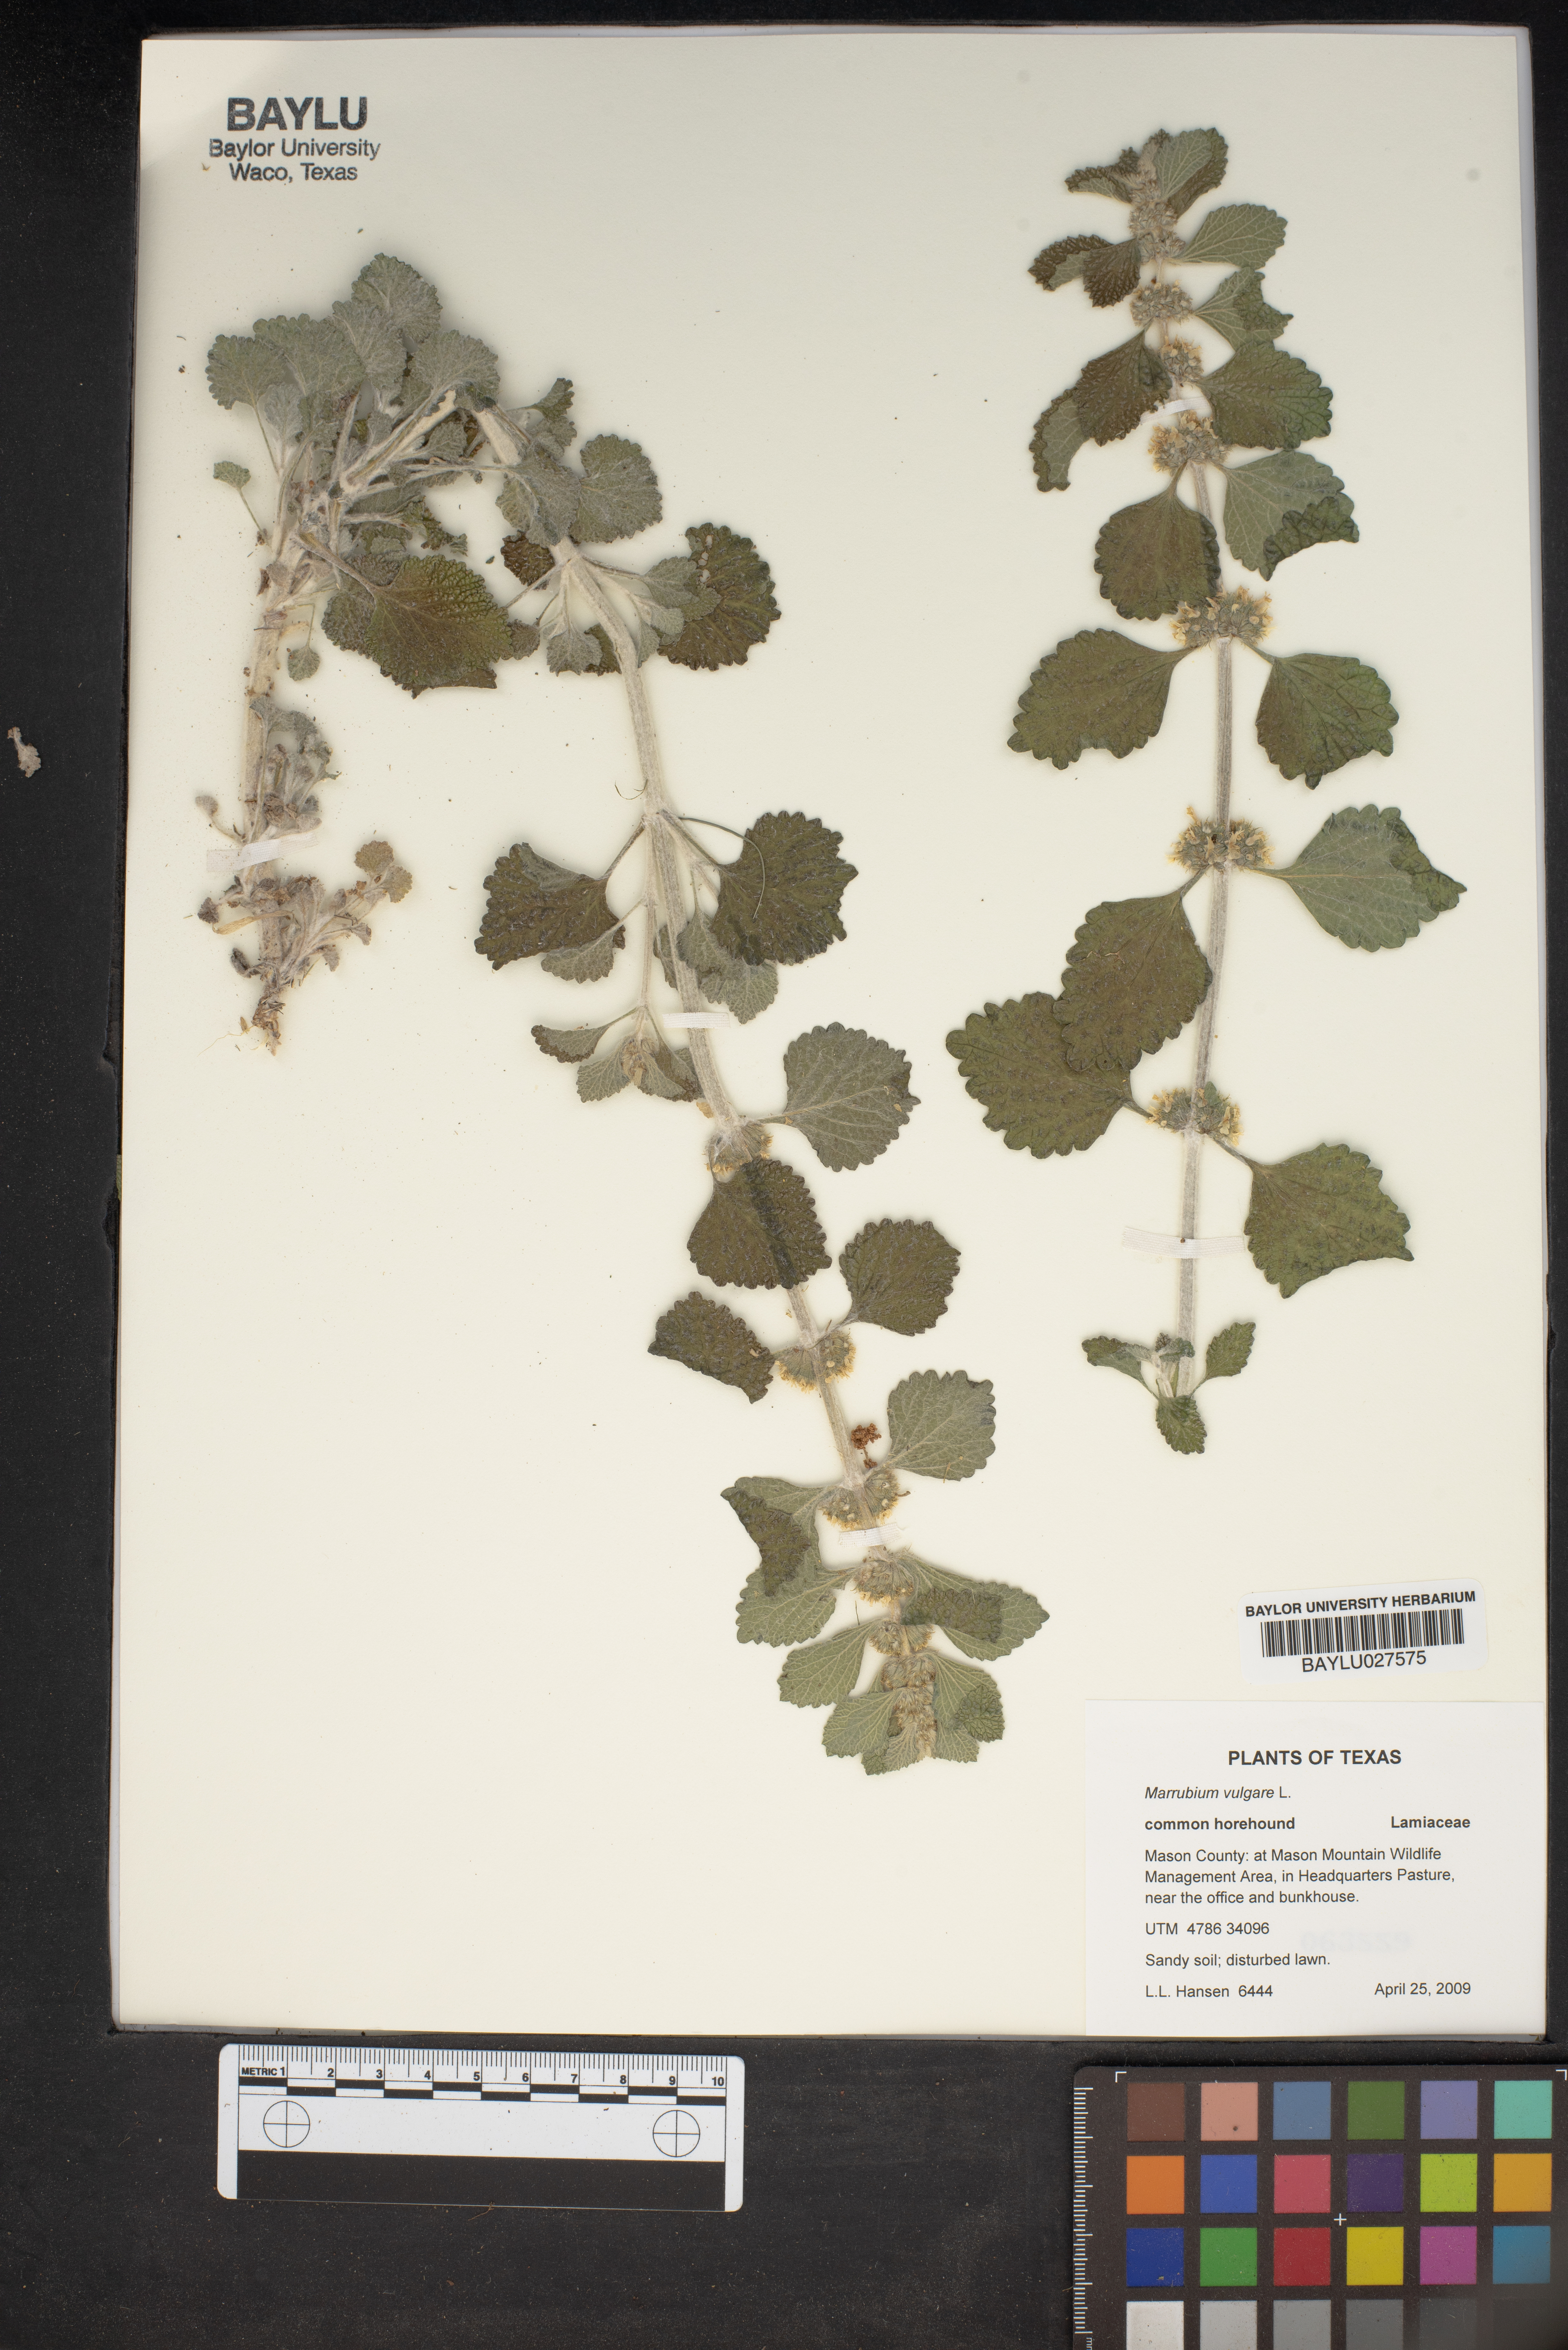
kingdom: Plantae
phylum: Tracheophyta
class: Magnoliopsida
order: Lamiales
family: Lamiaceae
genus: Marrubium
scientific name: Marrubium vulgare
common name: Horehound
